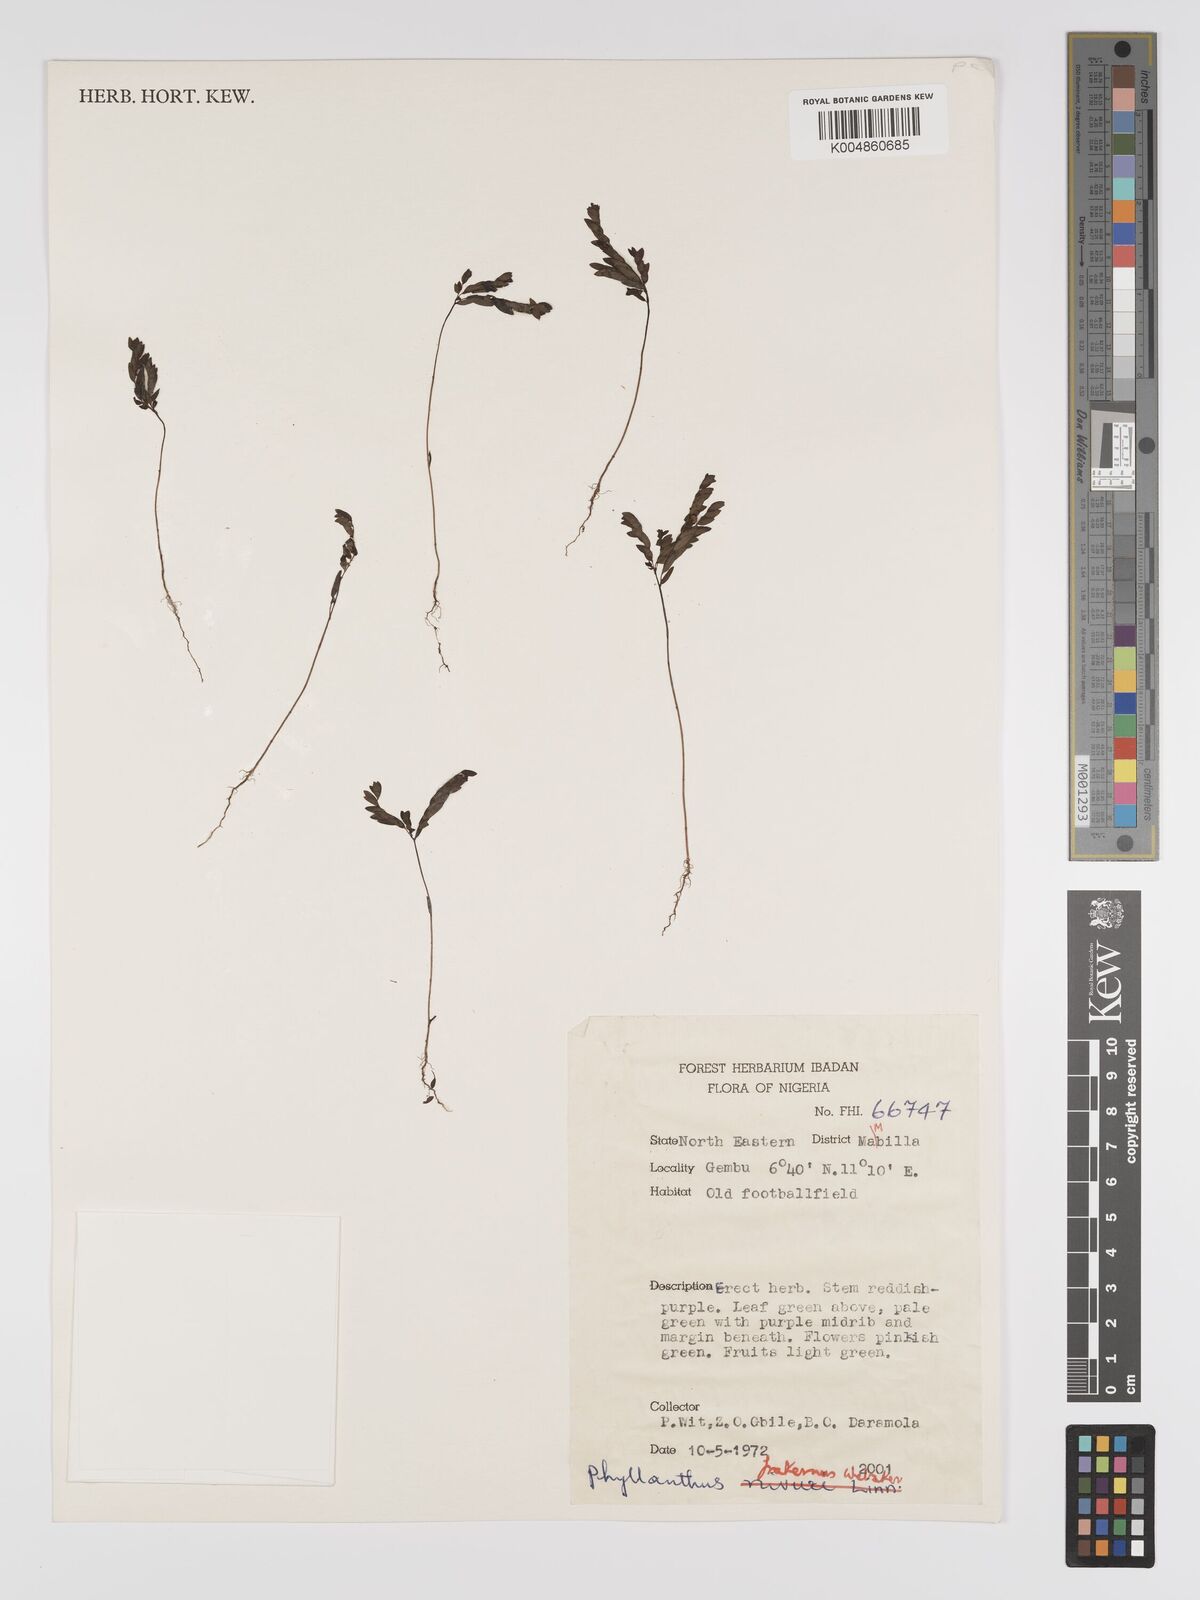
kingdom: Plantae
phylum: Tracheophyta
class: Magnoliopsida
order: Malpighiales
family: Phyllanthaceae
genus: Phyllanthus
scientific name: Phyllanthus fraternus
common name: Gulf leaf-flower
